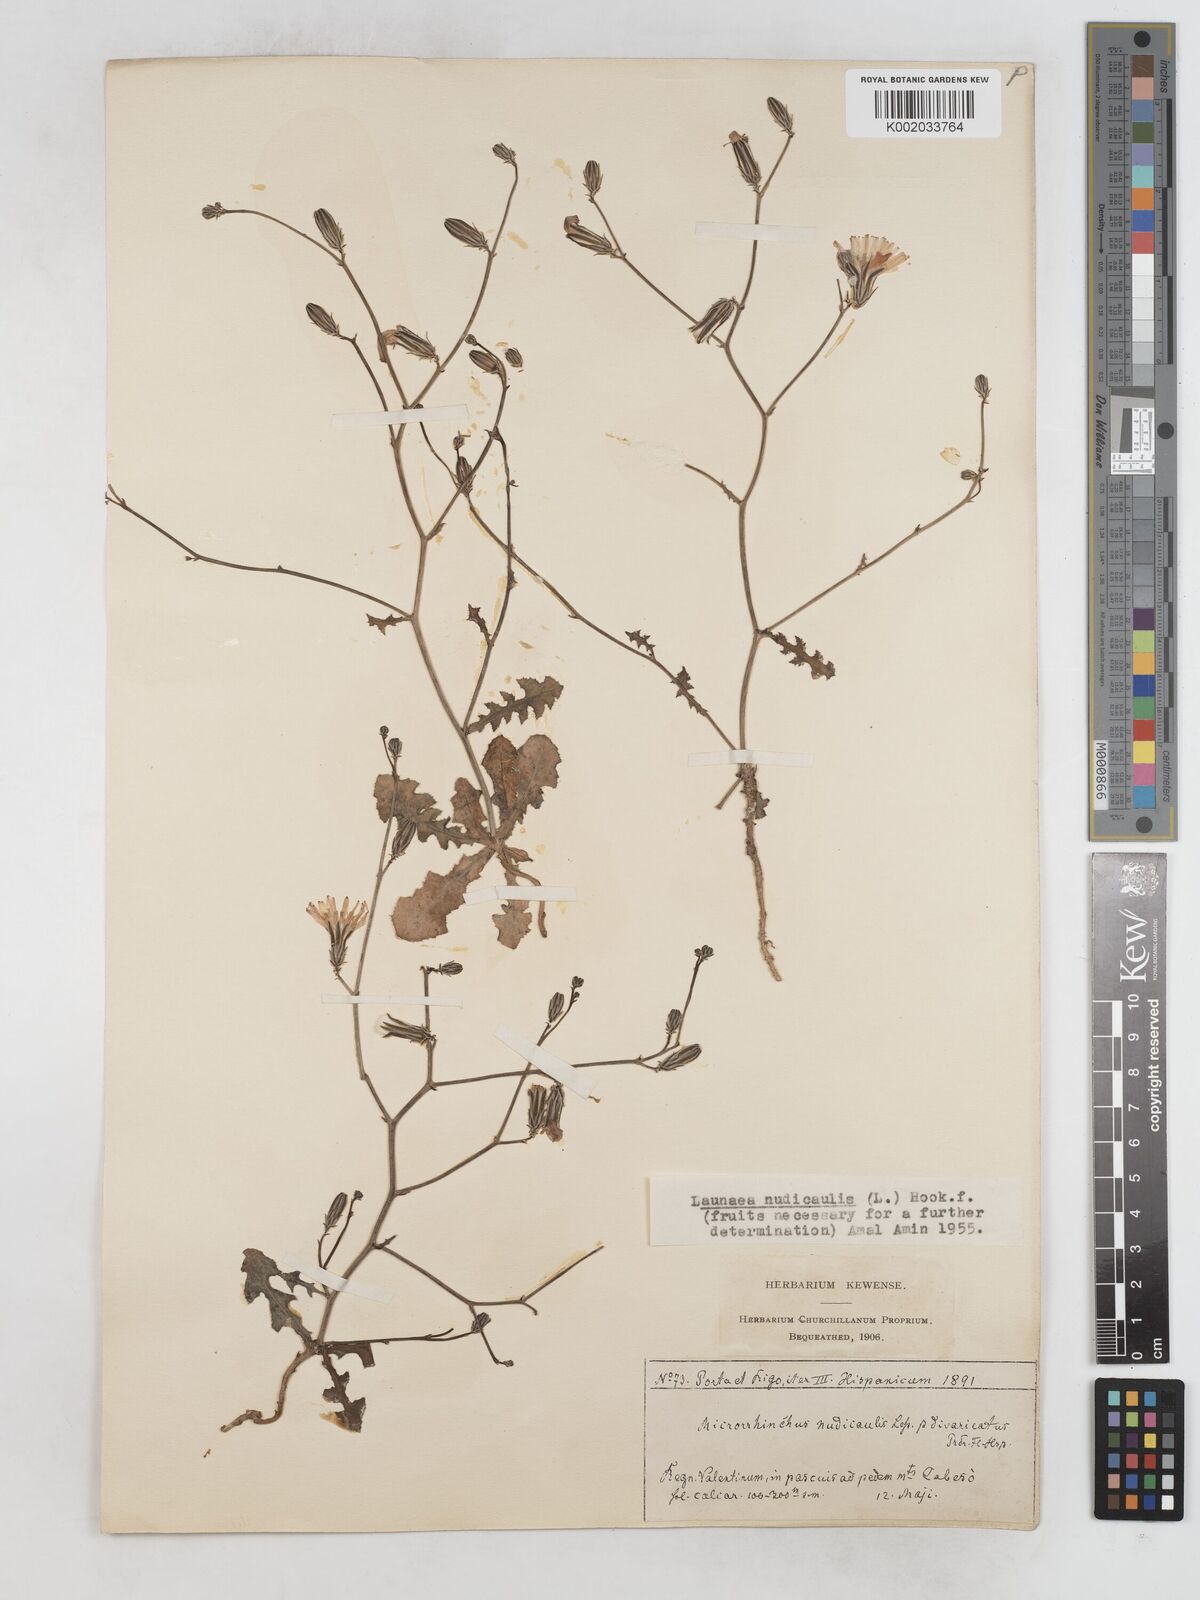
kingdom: Plantae
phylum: Tracheophyta
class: Magnoliopsida
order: Asterales
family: Asteraceae
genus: Launaea
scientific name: Launaea nudicaulis
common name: Naked launaea
